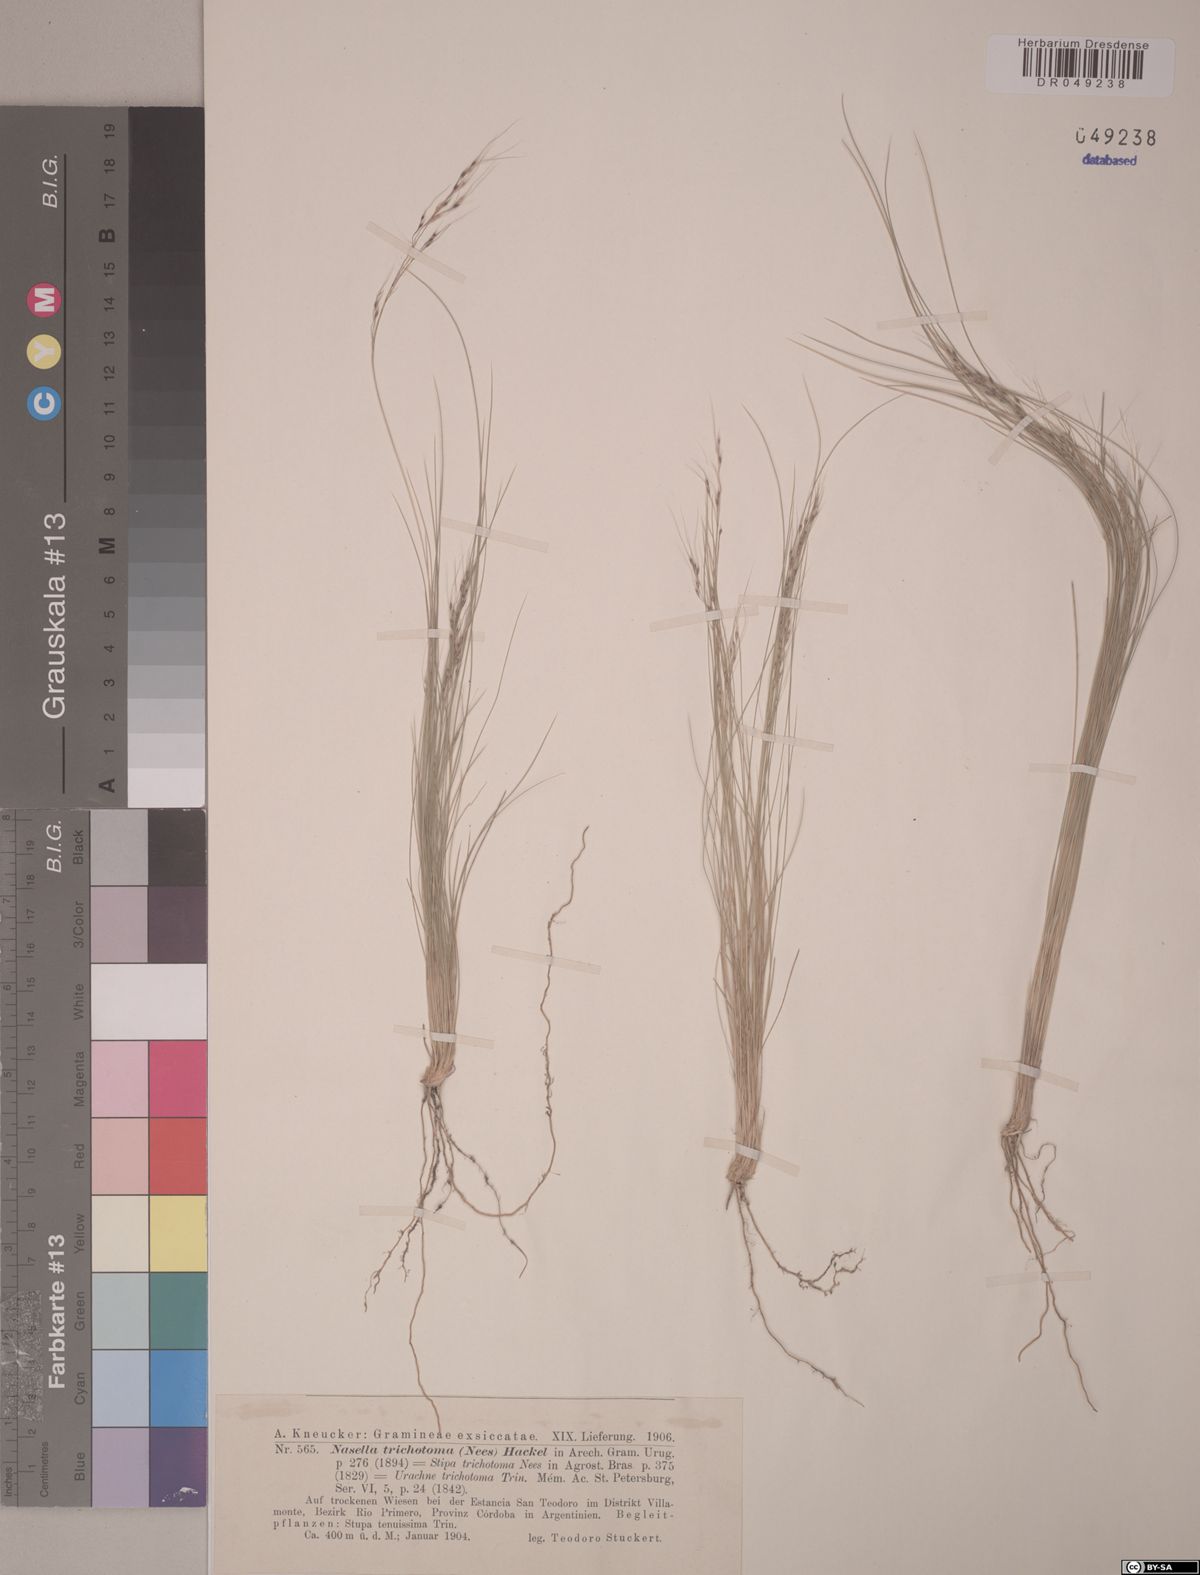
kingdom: Plantae
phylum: Tracheophyta
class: Liliopsida
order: Poales
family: Poaceae
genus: Nassella
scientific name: Nassella trichotoma
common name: Serrated tussock grass
